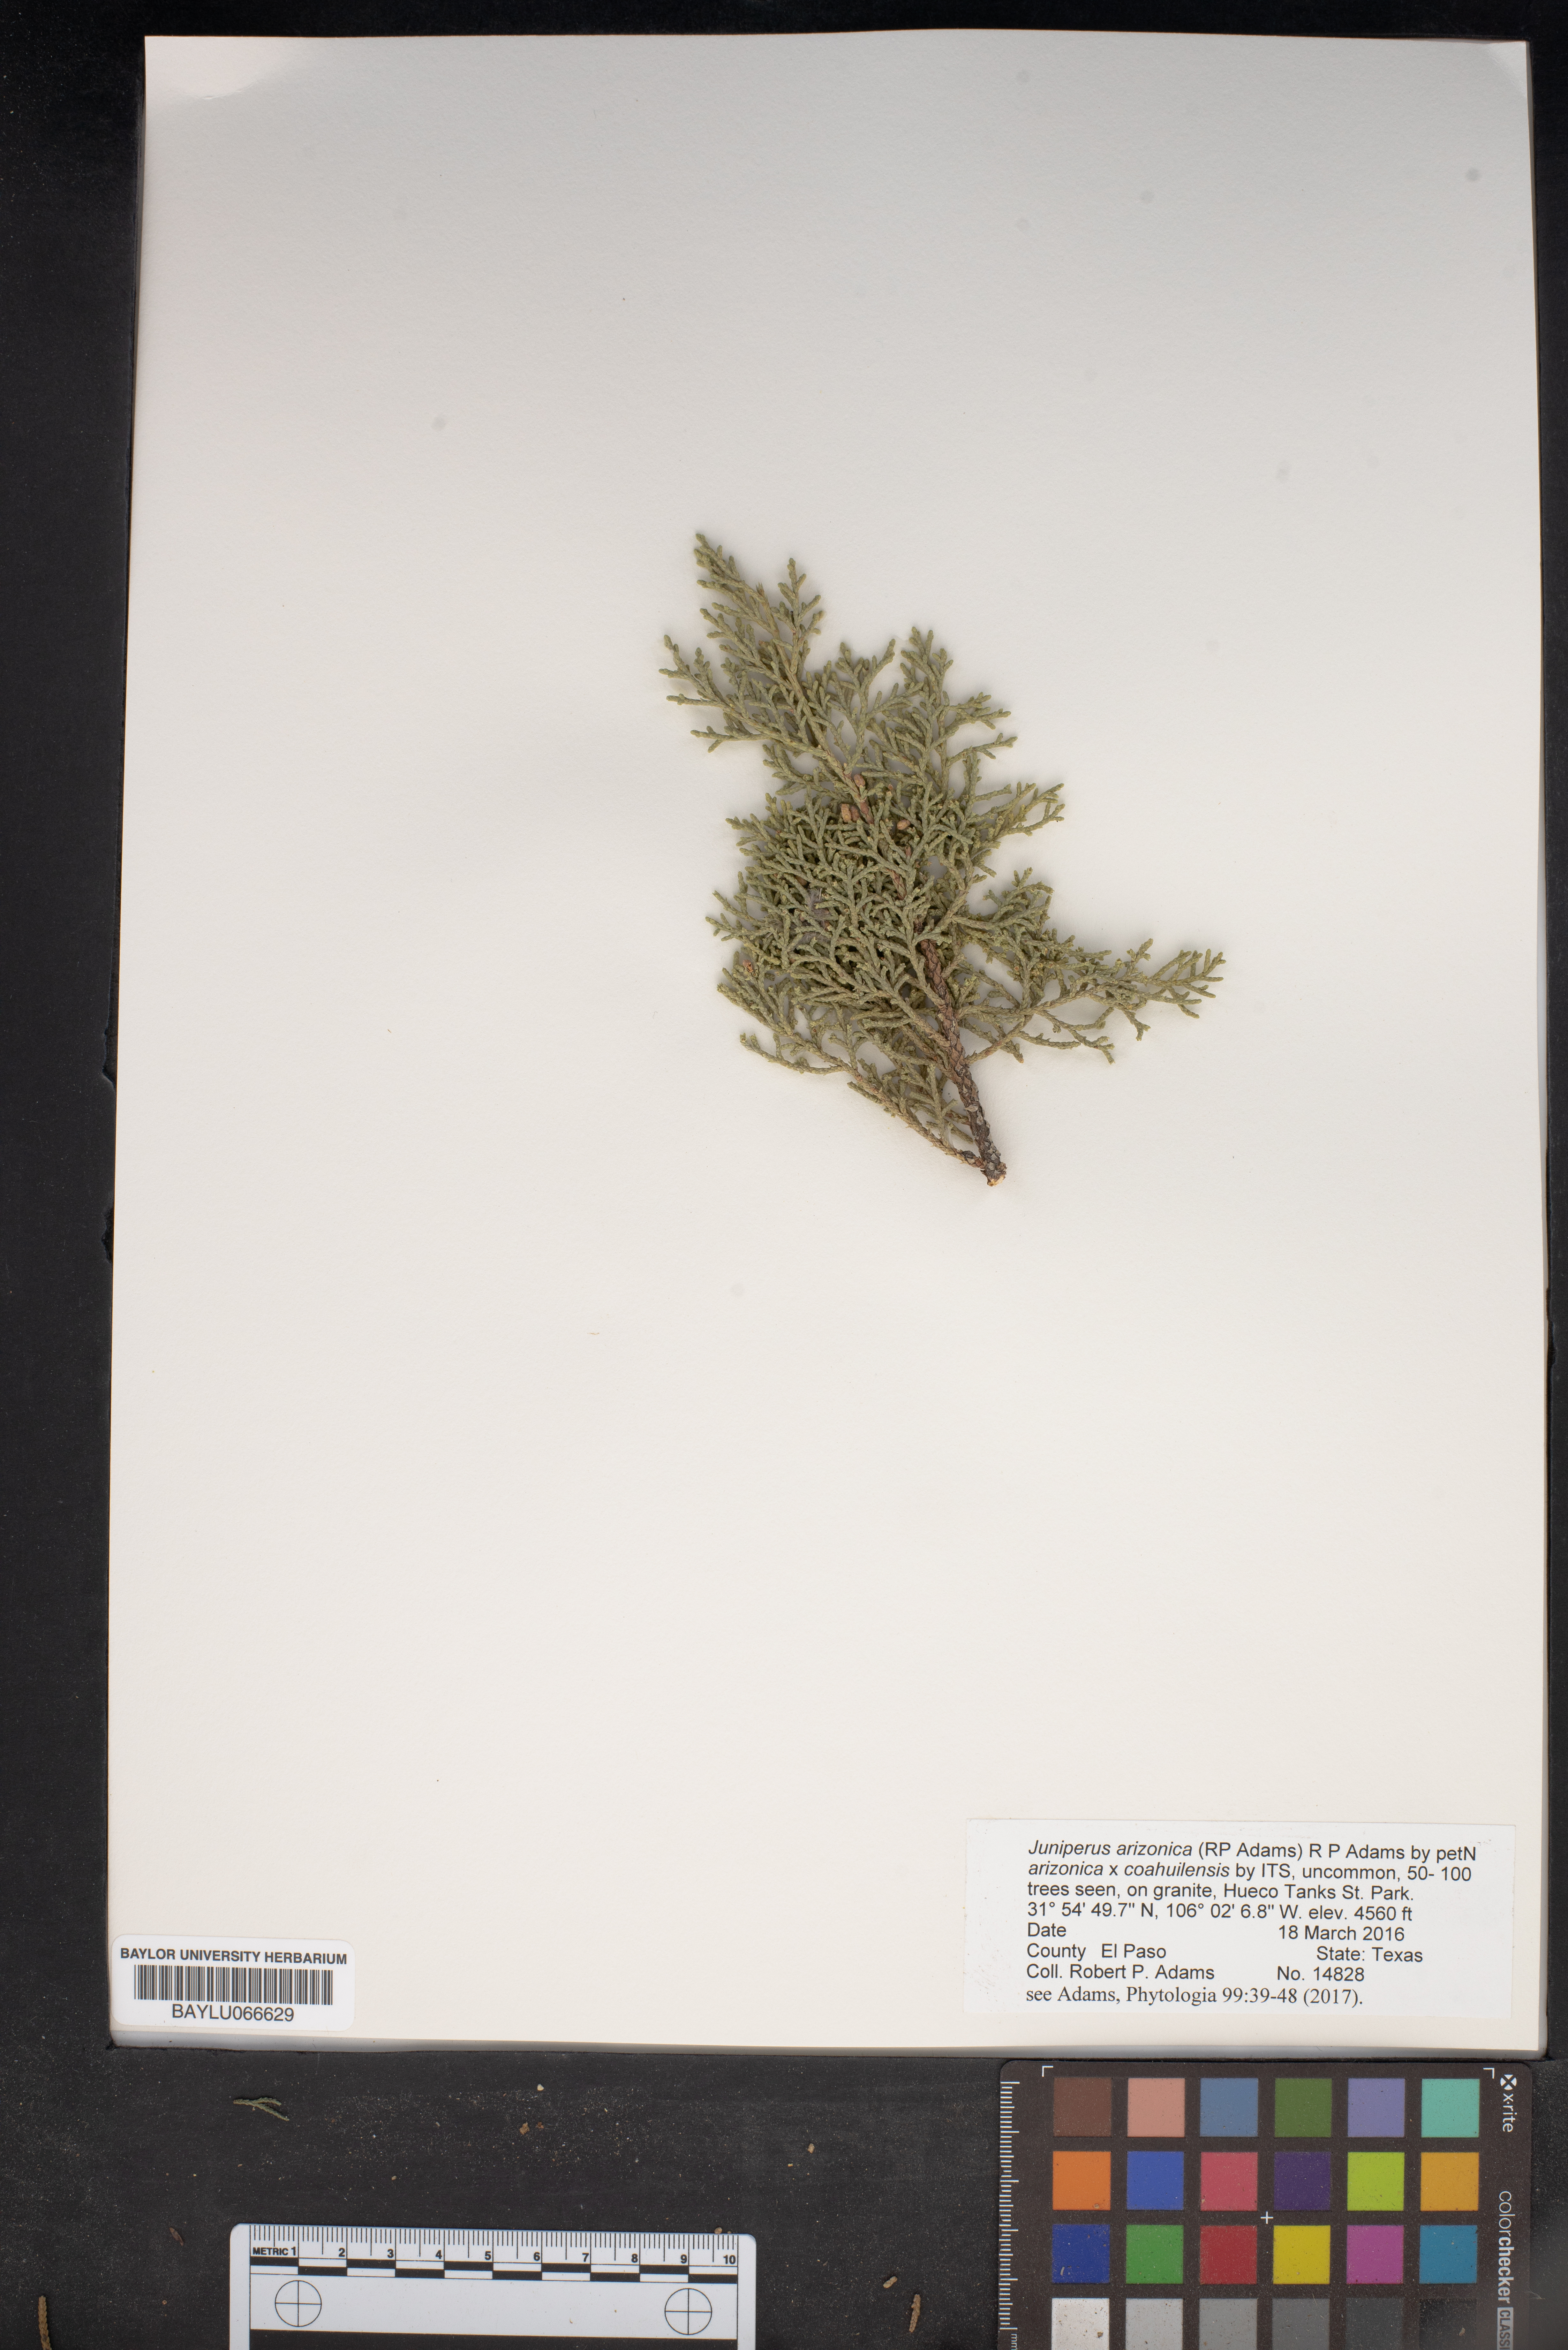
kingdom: Plantae
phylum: Tracheophyta
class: Pinopsida
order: Pinales
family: Cupressaceae
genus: Juniperus
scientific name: Juniperus arizonica
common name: Arizona juniper
